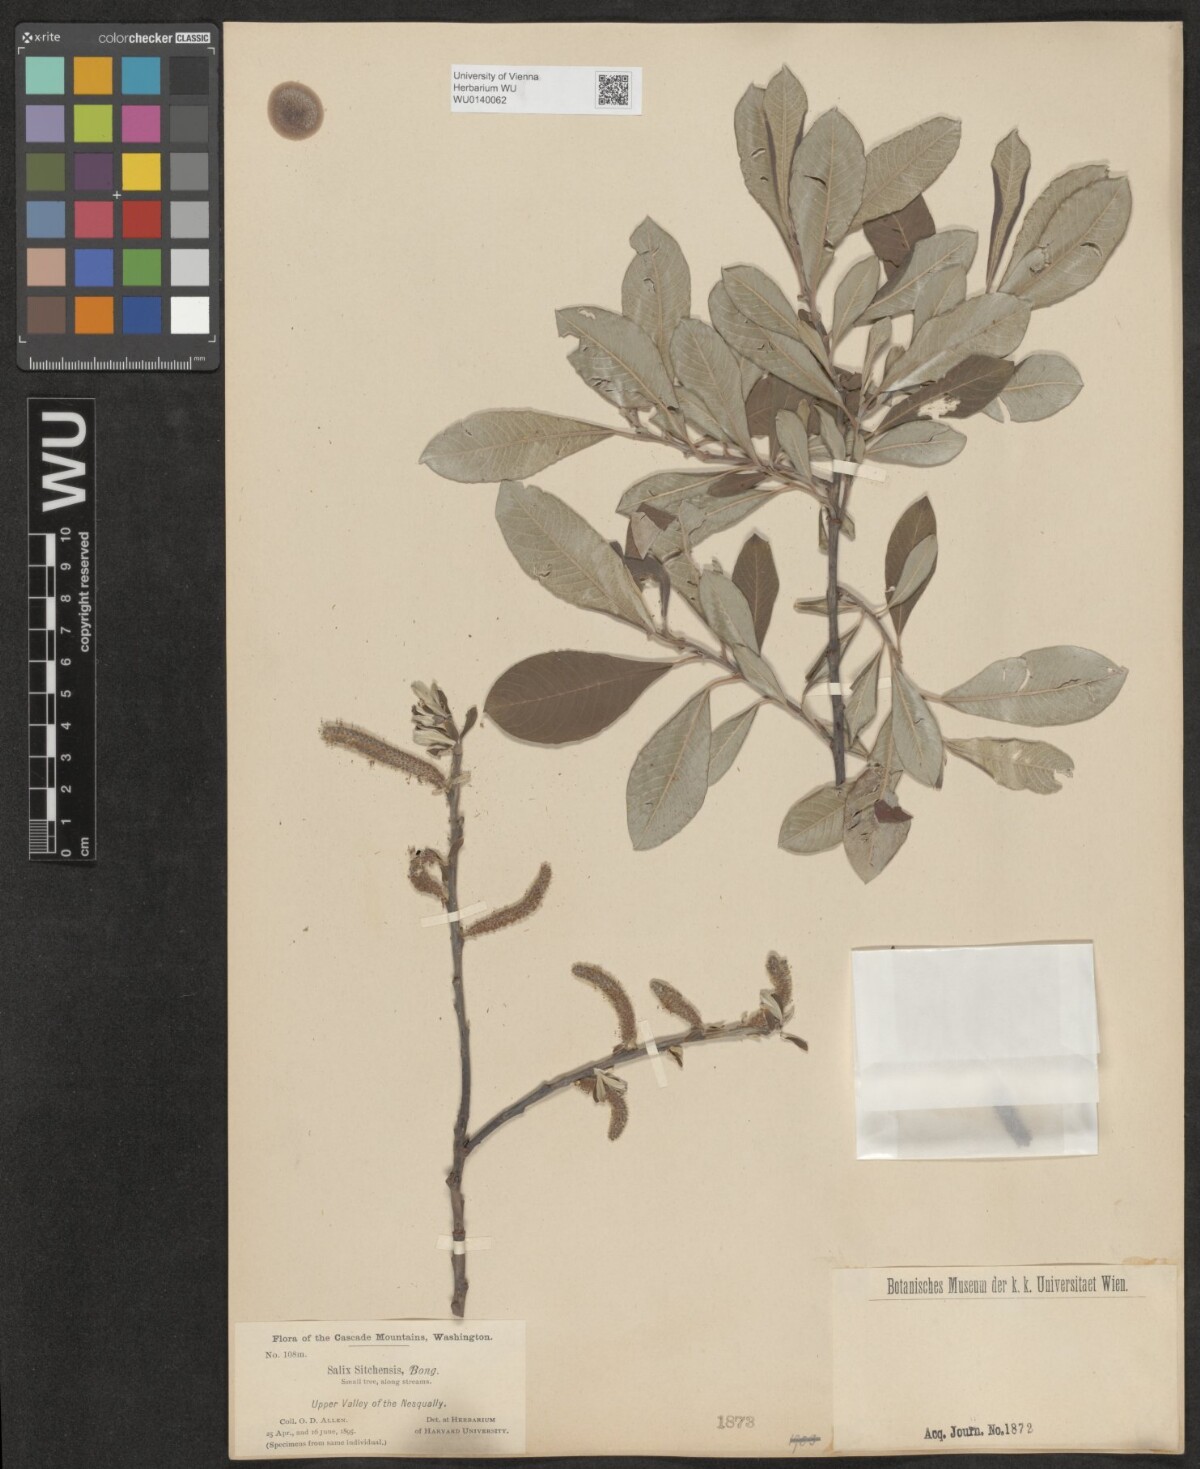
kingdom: Plantae
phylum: Tracheophyta
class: Magnoliopsida
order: Malpighiales
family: Salicaceae
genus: Salix
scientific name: Salix sitchensis
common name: Sitka willow
